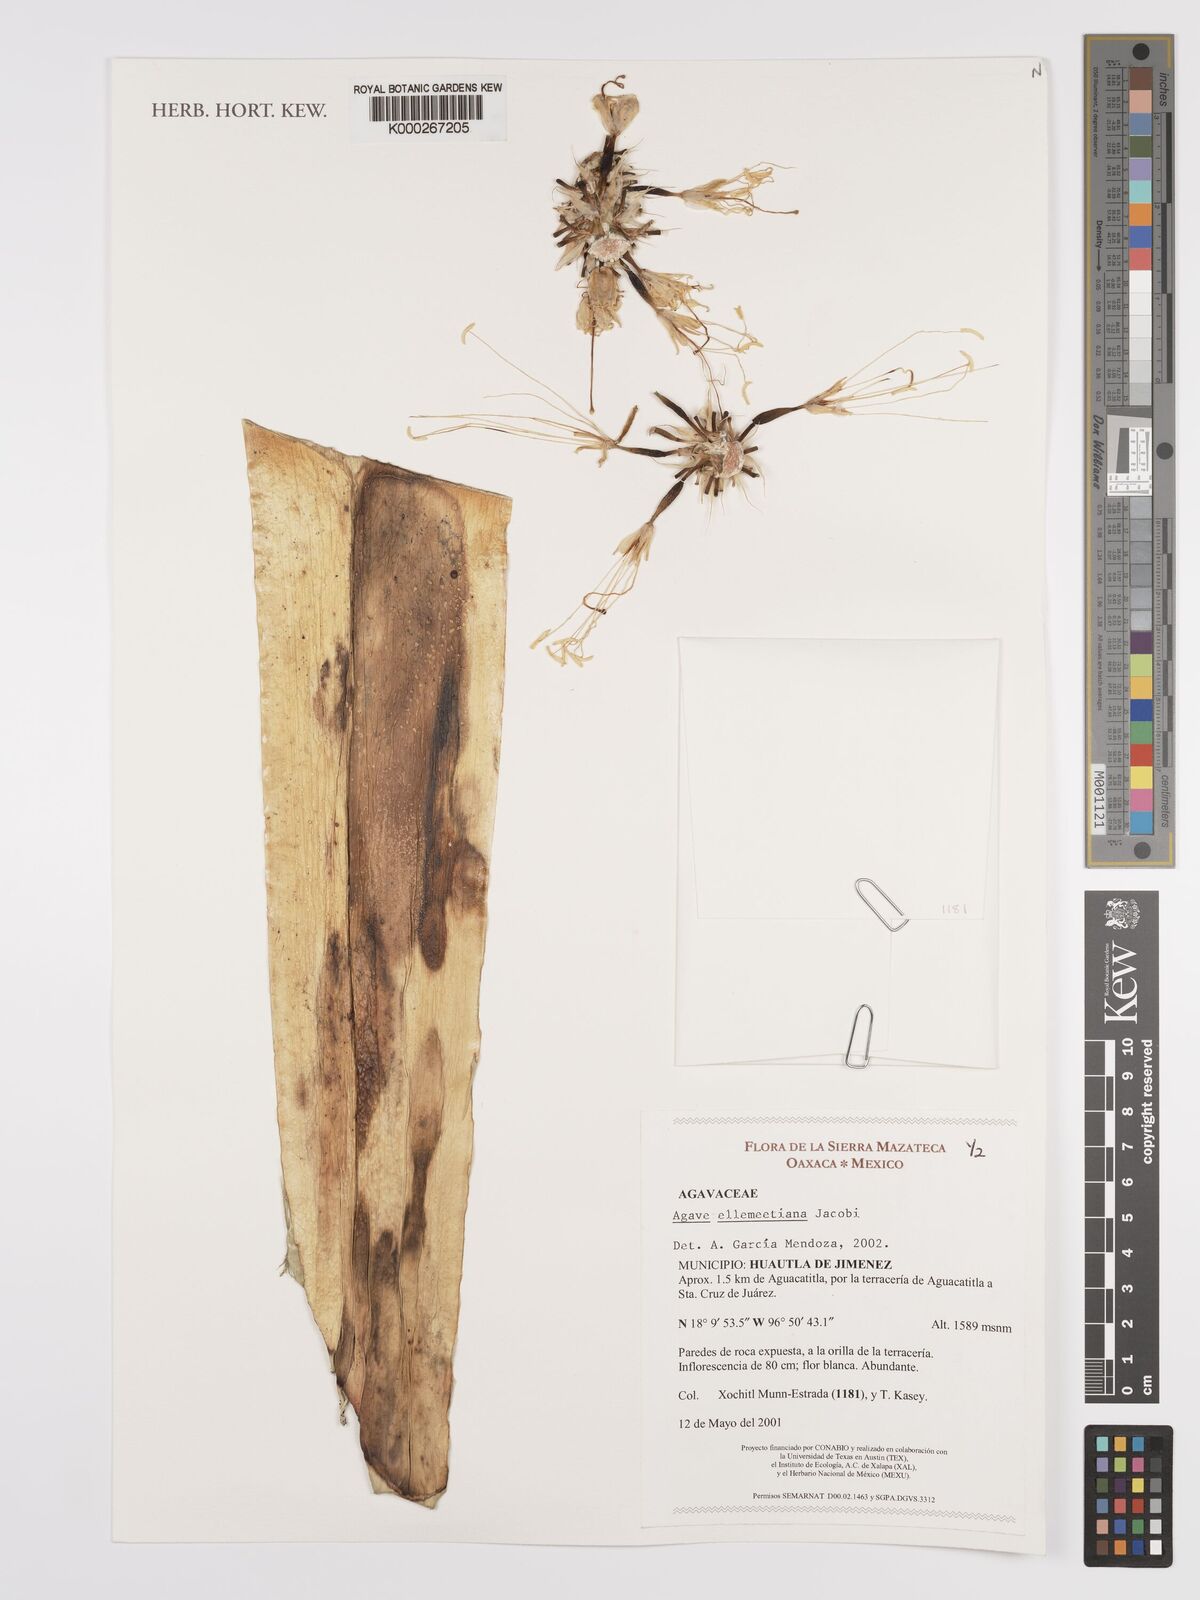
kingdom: Plantae
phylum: Tracheophyta
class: Liliopsida
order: Asparagales
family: Asparagaceae
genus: Agave
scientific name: Agave
